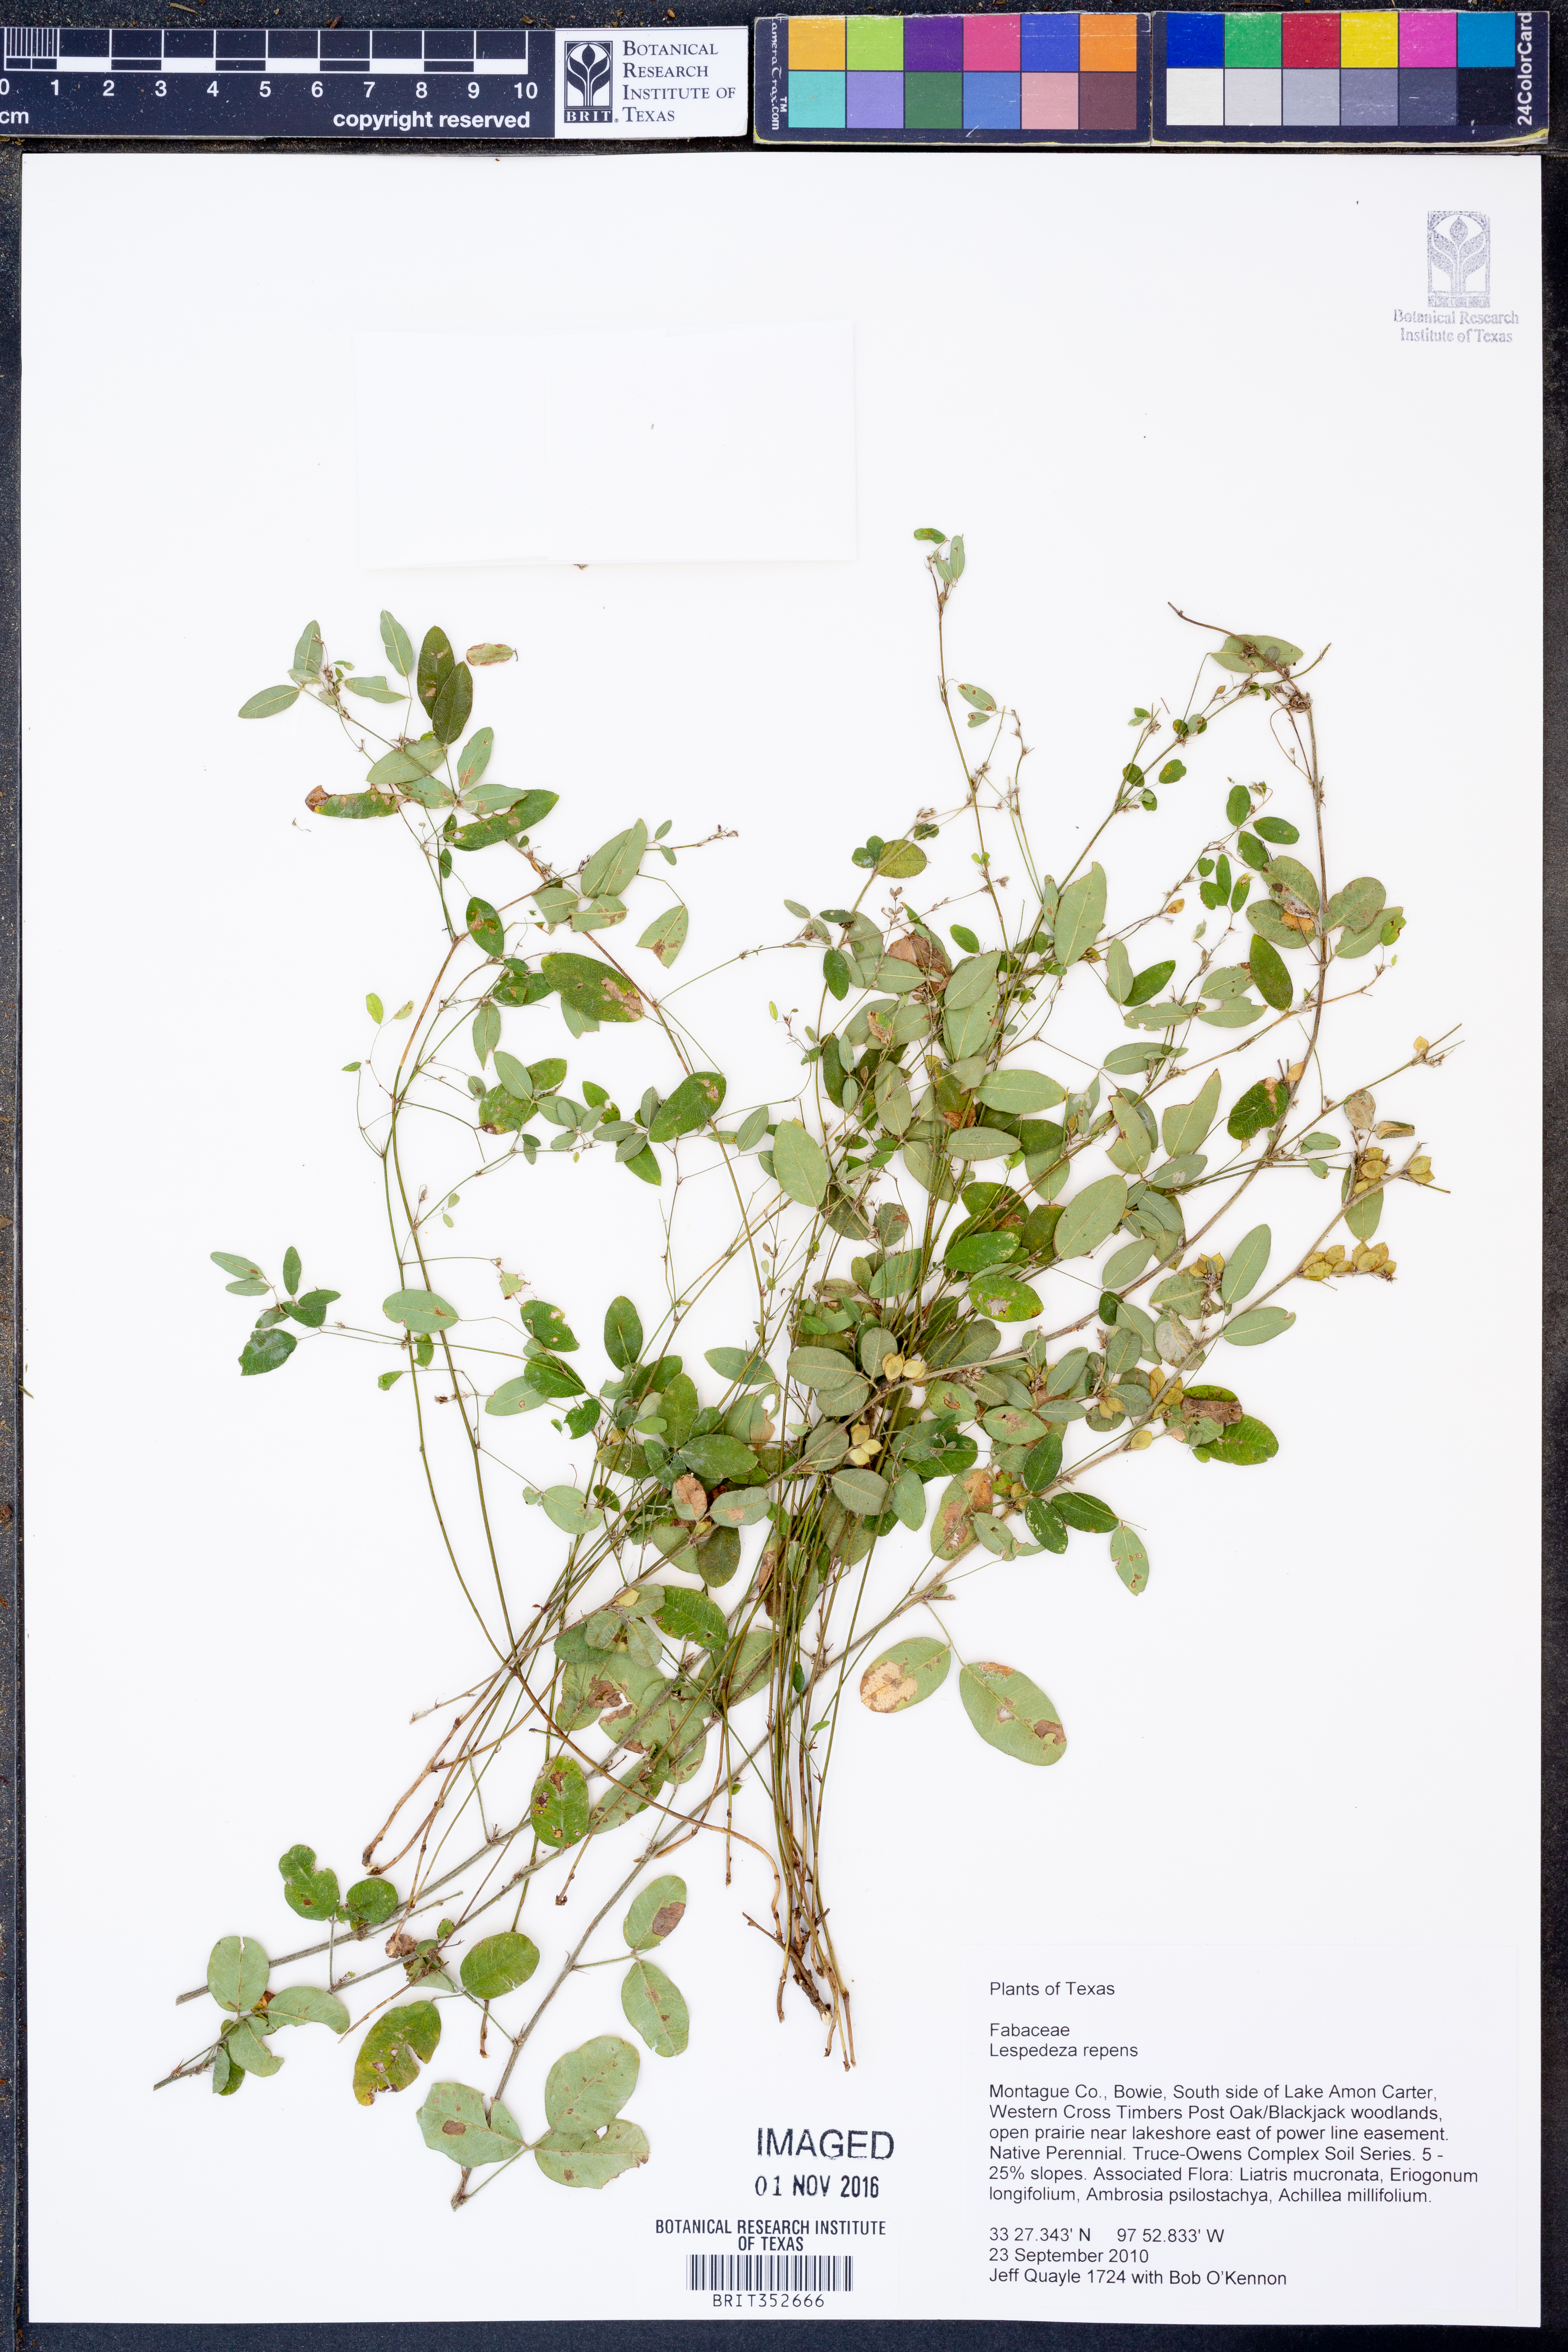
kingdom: Plantae
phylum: Tracheophyta
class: Magnoliopsida
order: Fabales
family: Fabaceae
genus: Lespedeza
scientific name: Lespedeza repens
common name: Creeping bush-clover
